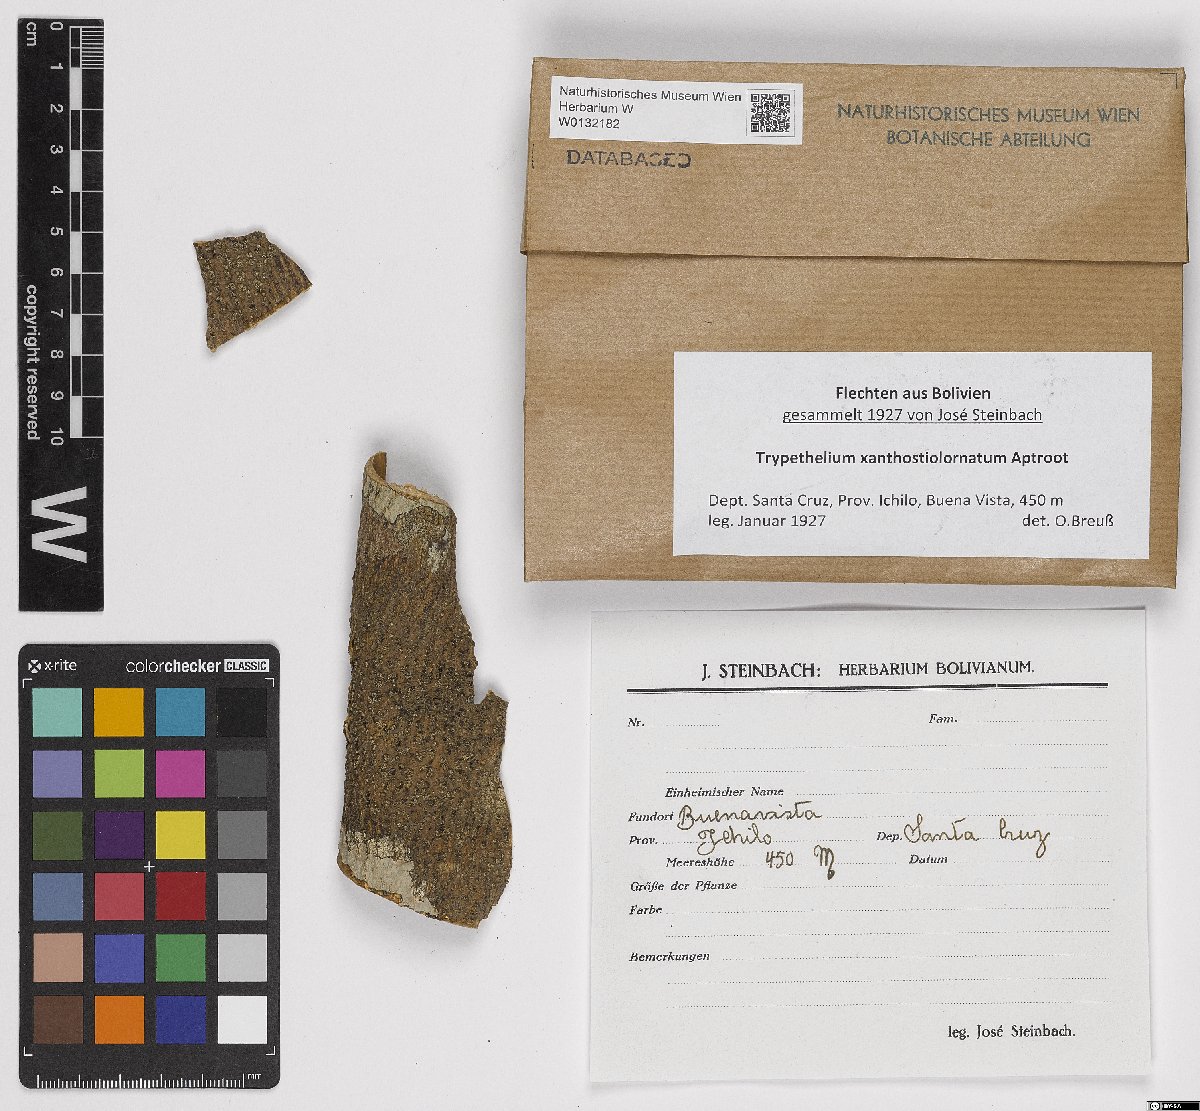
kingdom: Fungi
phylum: Ascomycota
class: Dothideomycetes
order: Trypetheliales
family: Trypetheliaceae
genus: Trypethelium
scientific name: Trypethelium xanthostiolornatum
